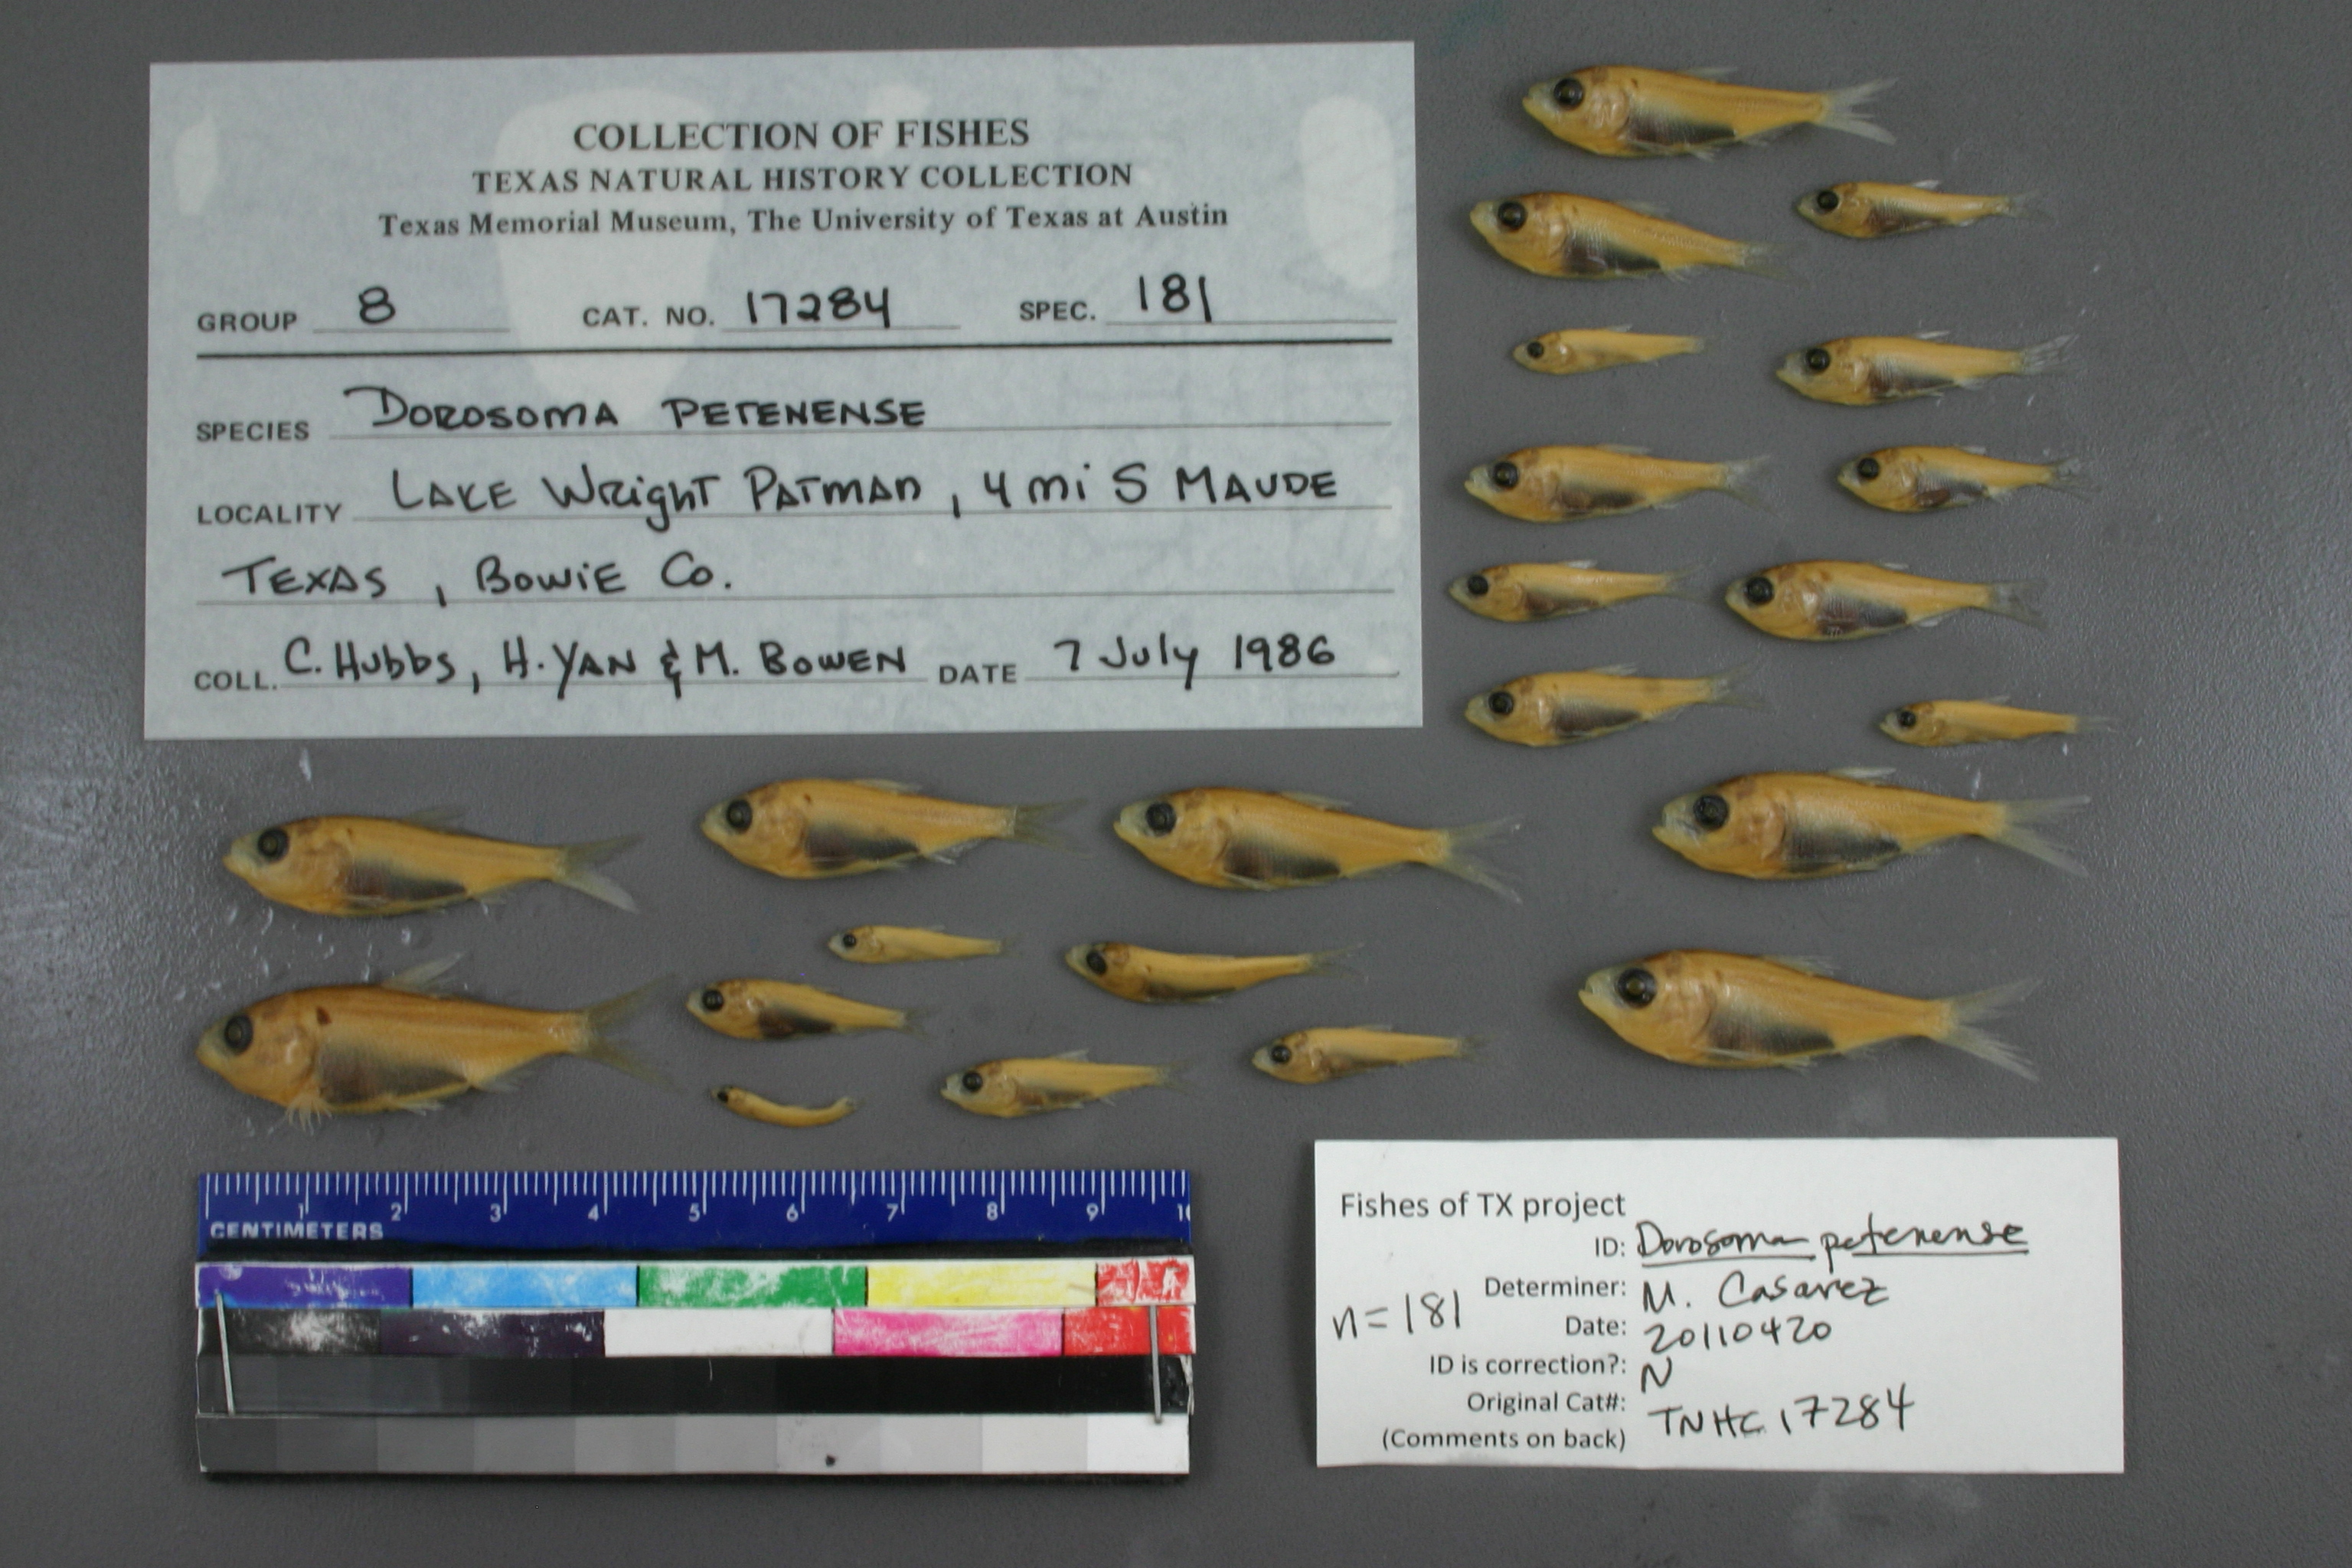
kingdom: Animalia
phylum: Chordata
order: Clupeiformes
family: Clupeidae
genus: Dorosoma
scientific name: Dorosoma petenense
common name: Threadfin shad
